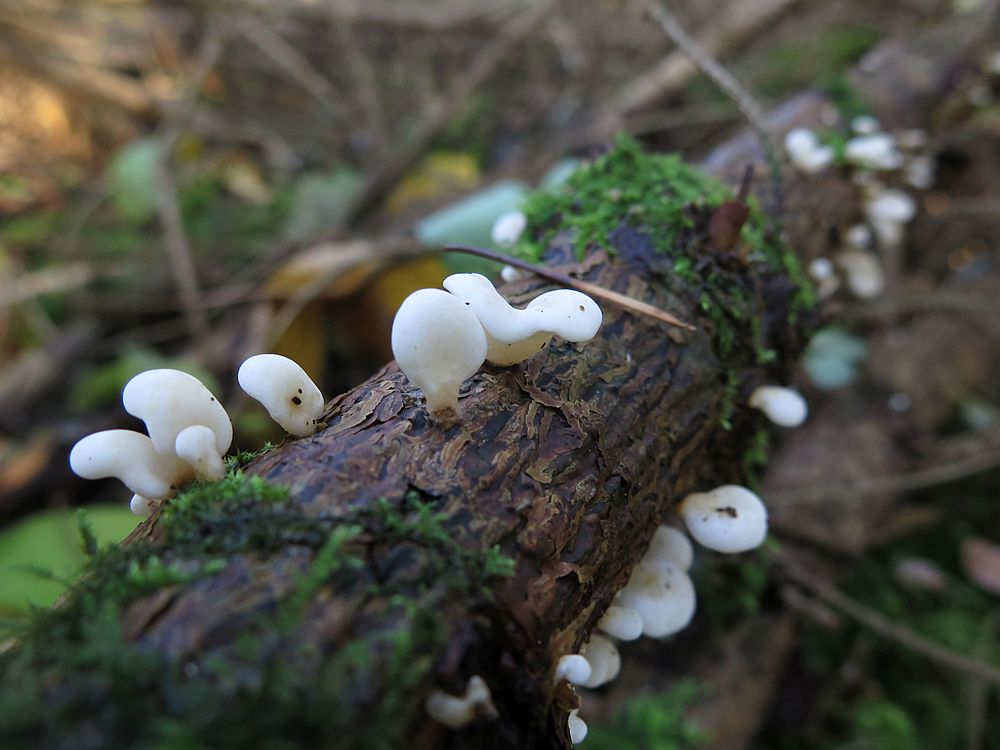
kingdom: Fungi
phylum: Basidiomycota
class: Agaricomycetes
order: Agaricales
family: Mycenaceae
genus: Panellus
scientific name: Panellus mitis
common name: mild epaulethat
